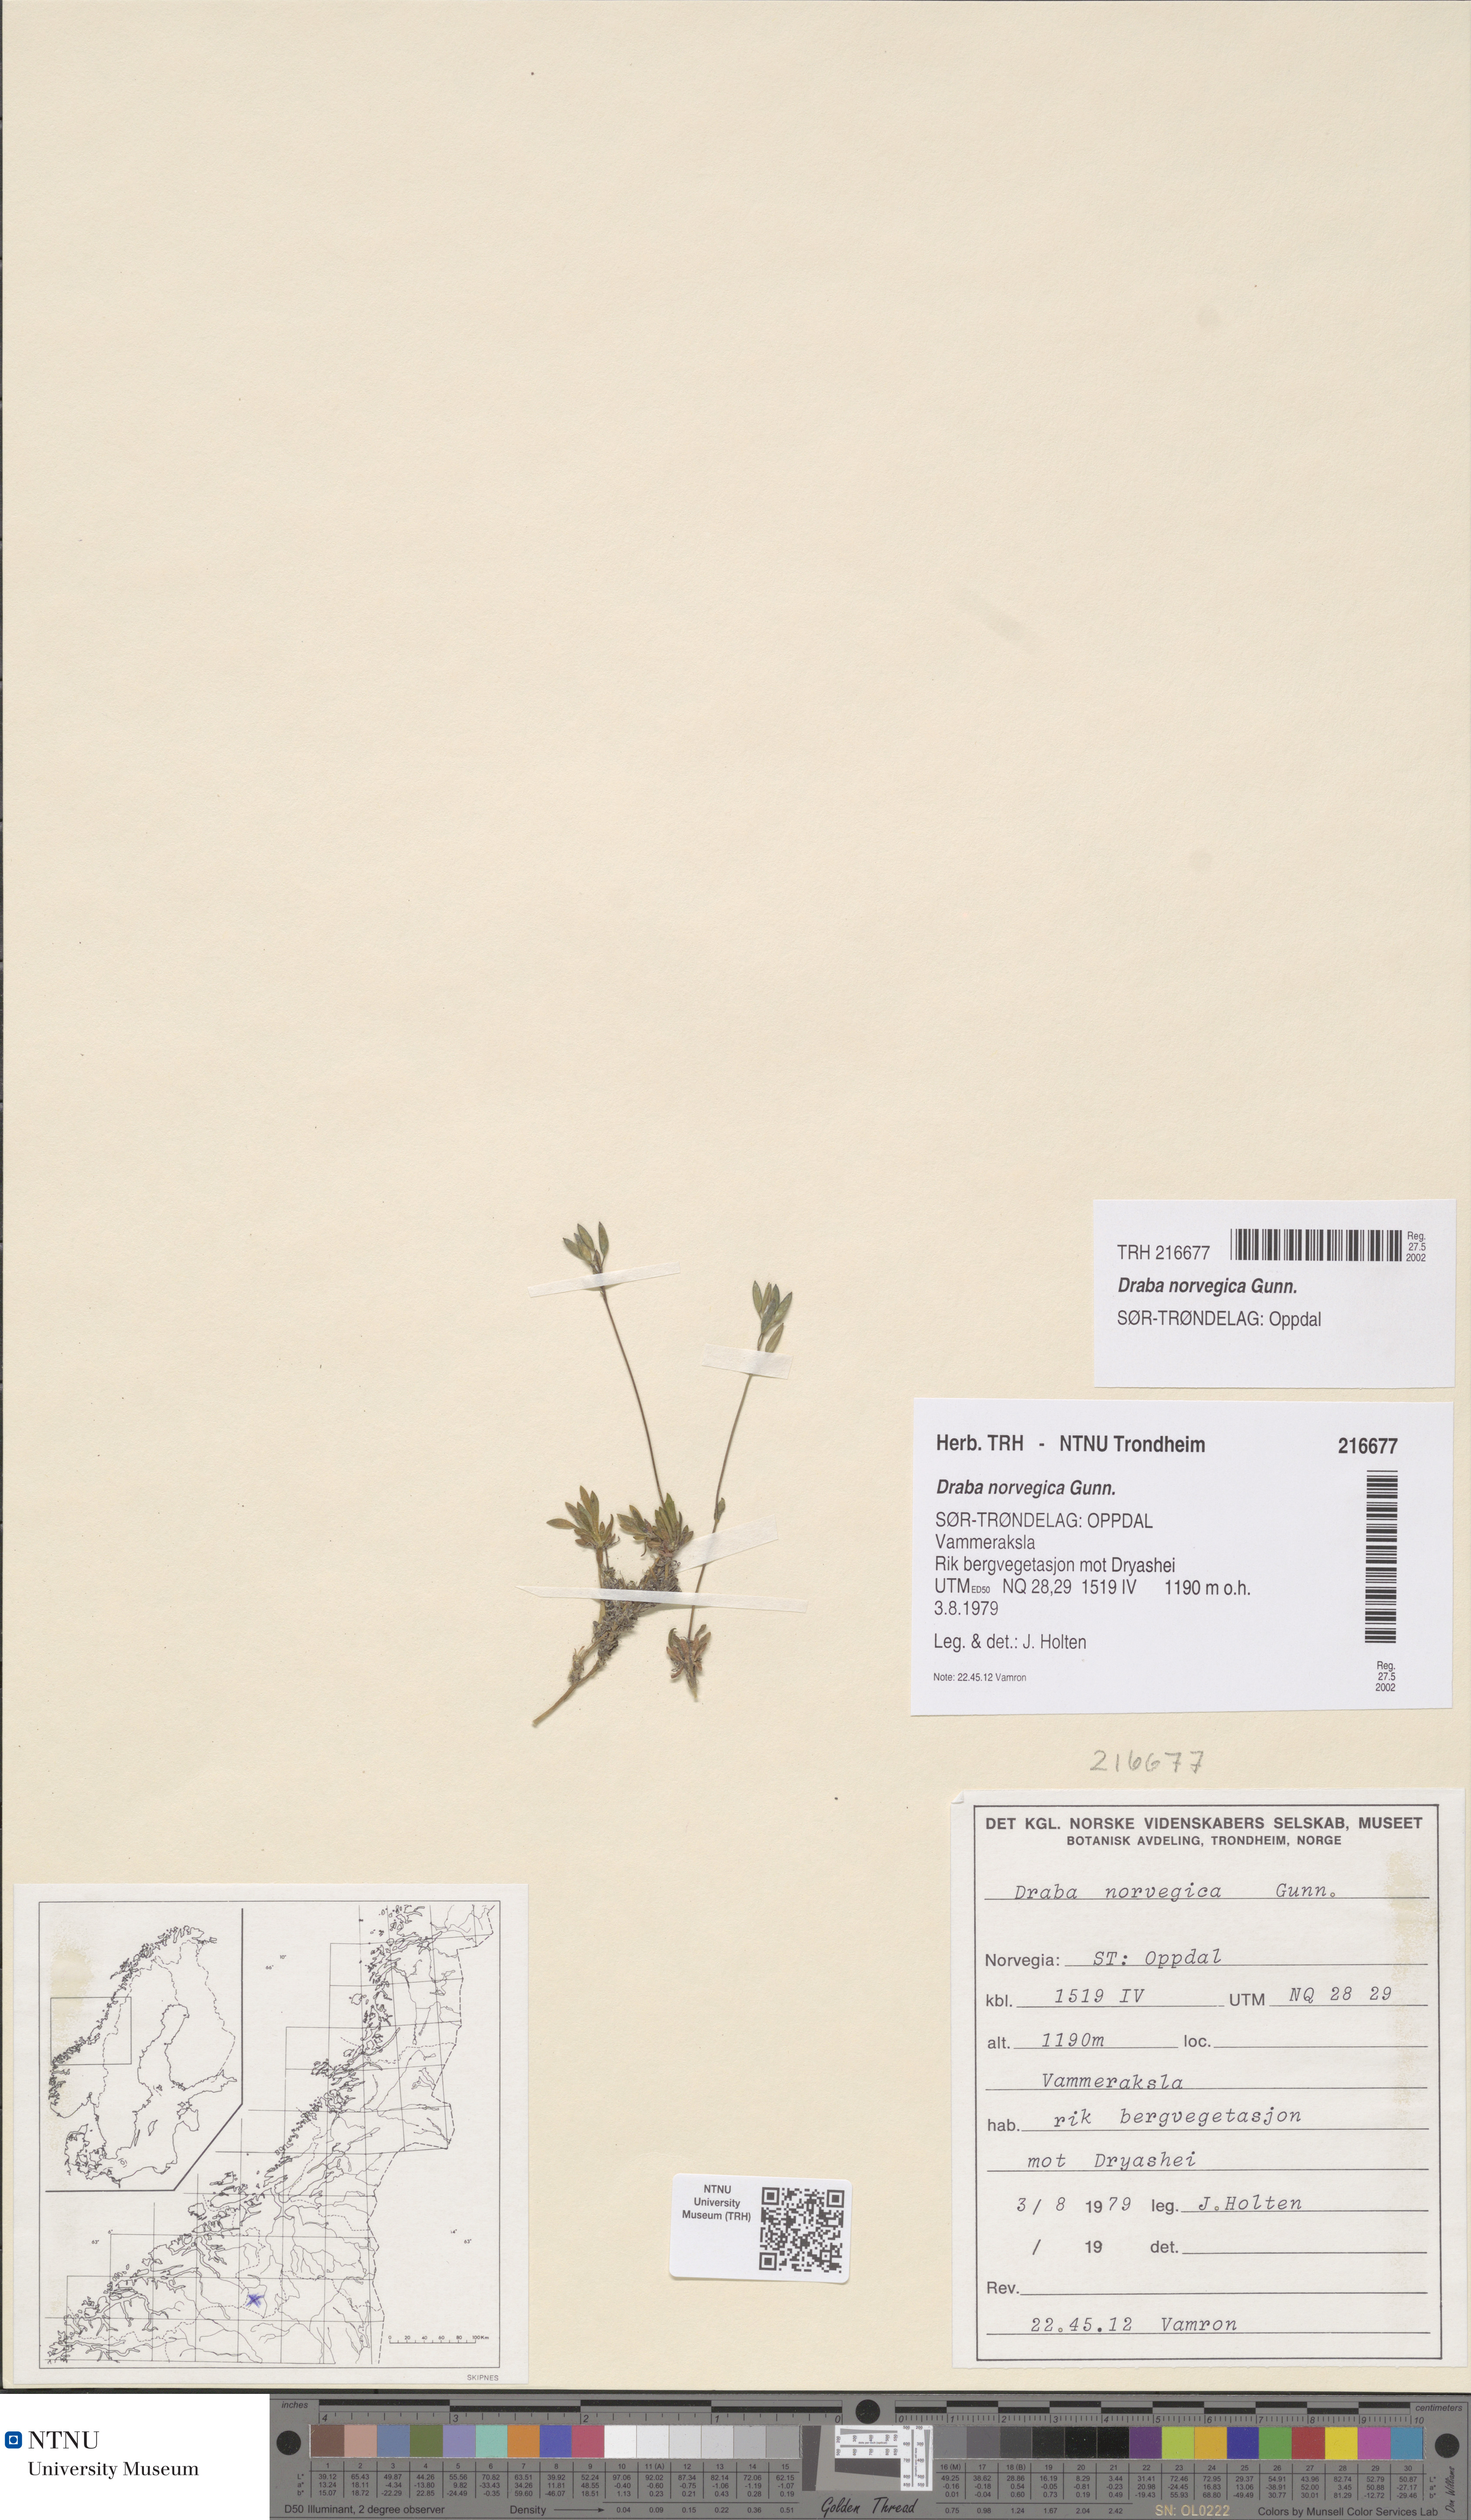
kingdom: Plantae
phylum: Tracheophyta
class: Magnoliopsida
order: Brassicales
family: Brassicaceae
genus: Draba
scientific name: Draba norvegica
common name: Rock whitlowgrass
